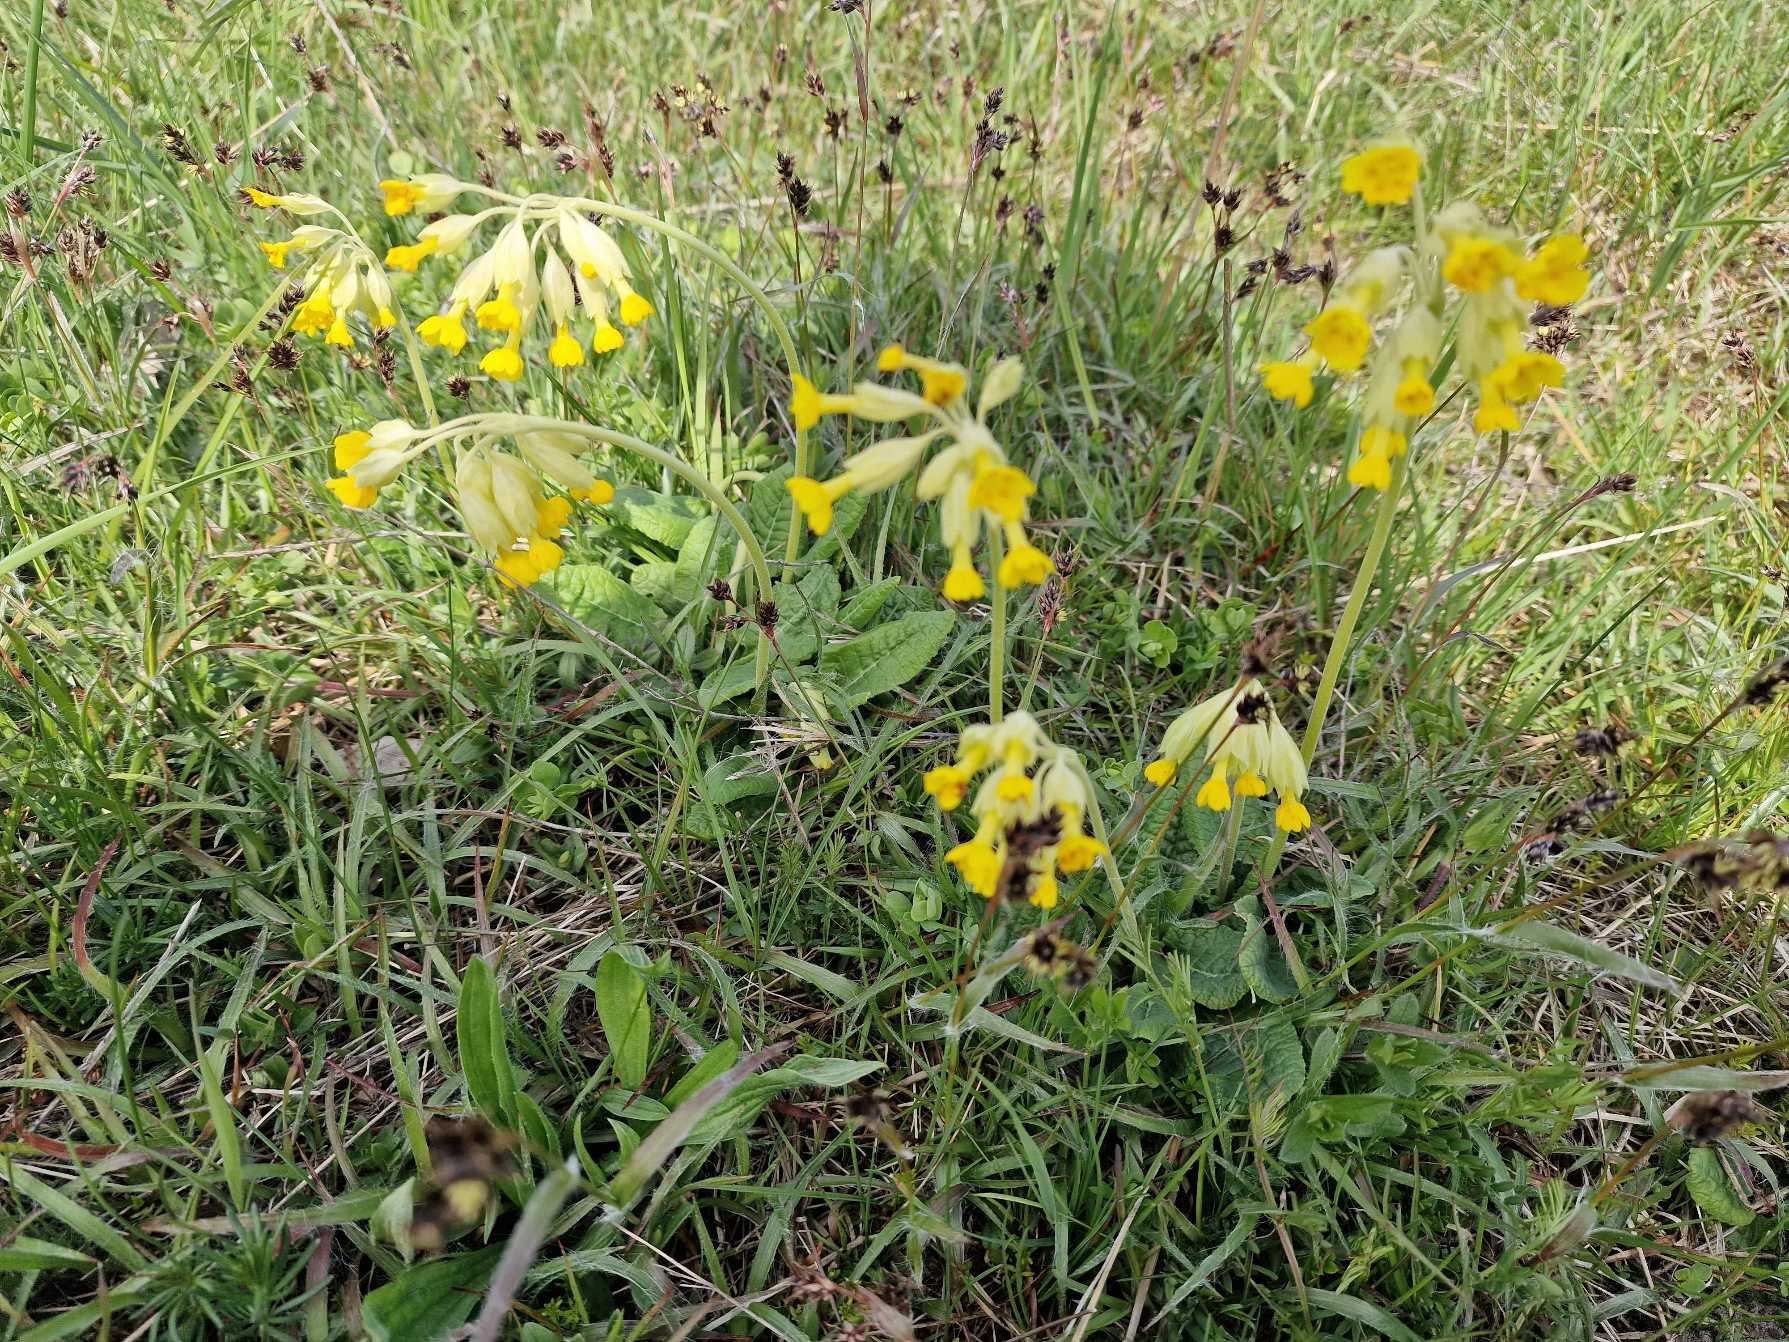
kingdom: Plantae
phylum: Tracheophyta
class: Magnoliopsida
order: Ericales
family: Primulaceae
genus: Primula
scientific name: Primula veris
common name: Hulkravet kodriver
